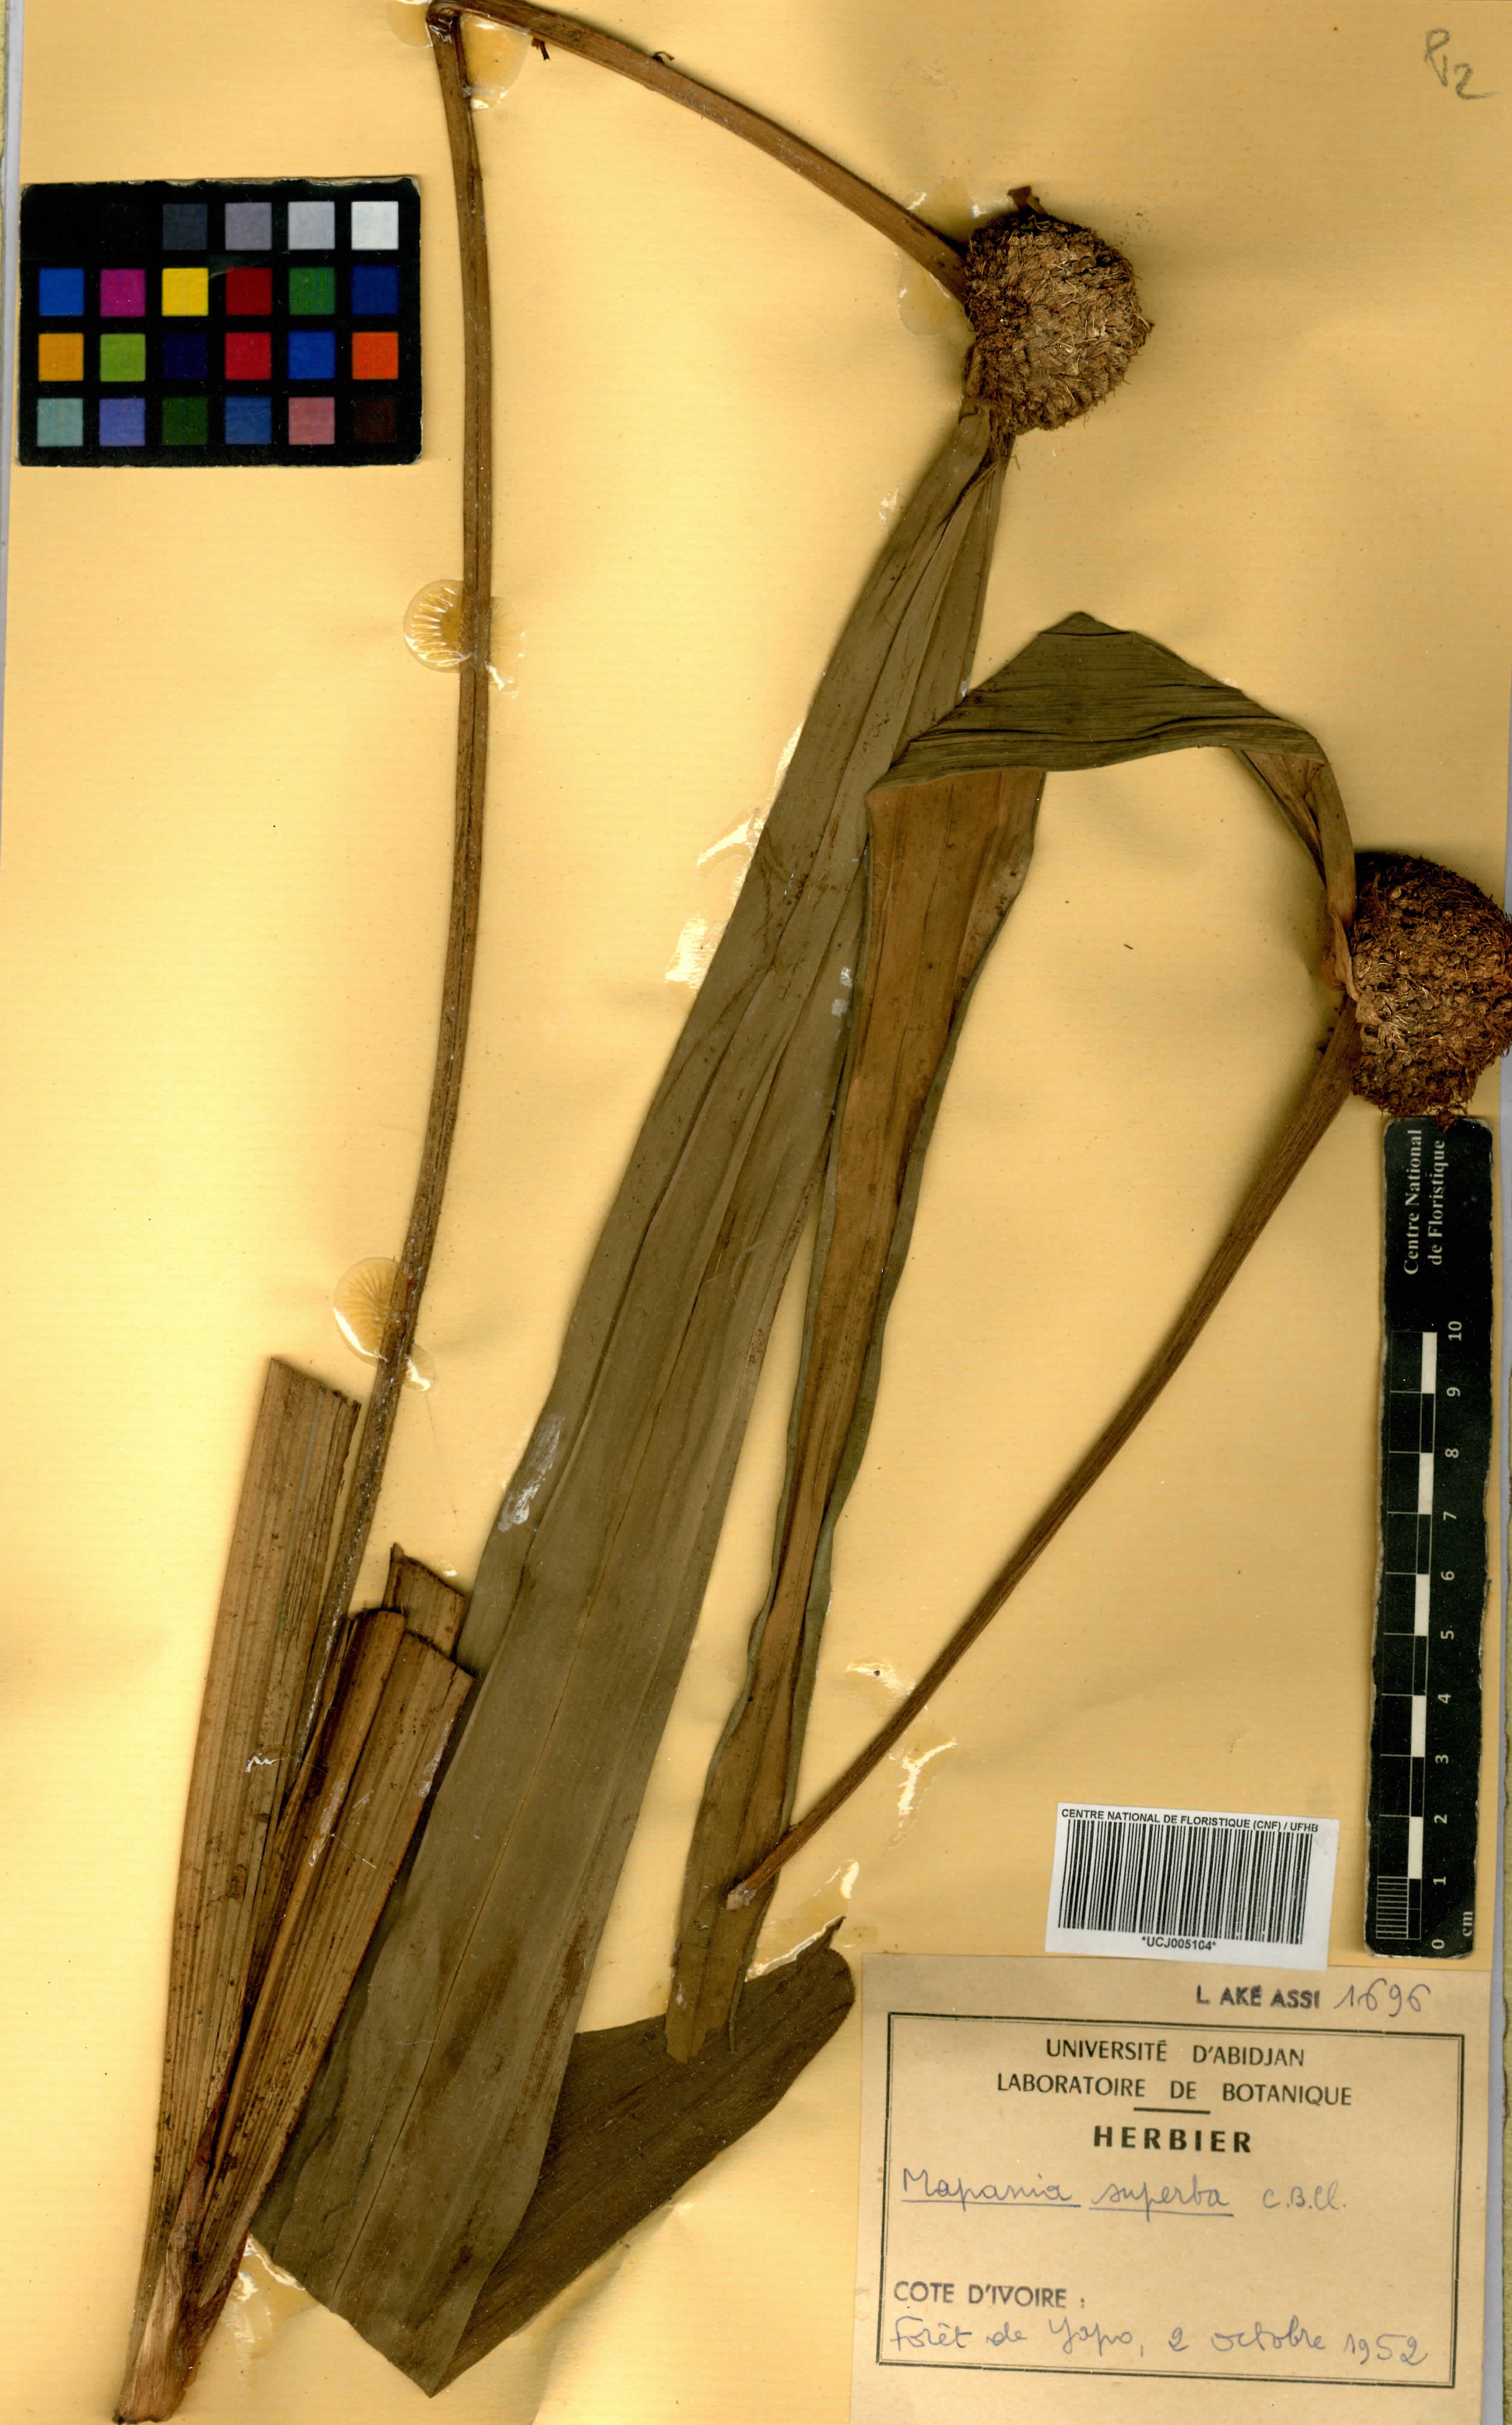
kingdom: Plantae
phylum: Tracheophyta
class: Liliopsida
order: Poales
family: Cyperaceae
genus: Mapania
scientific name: Mapania macrantha
